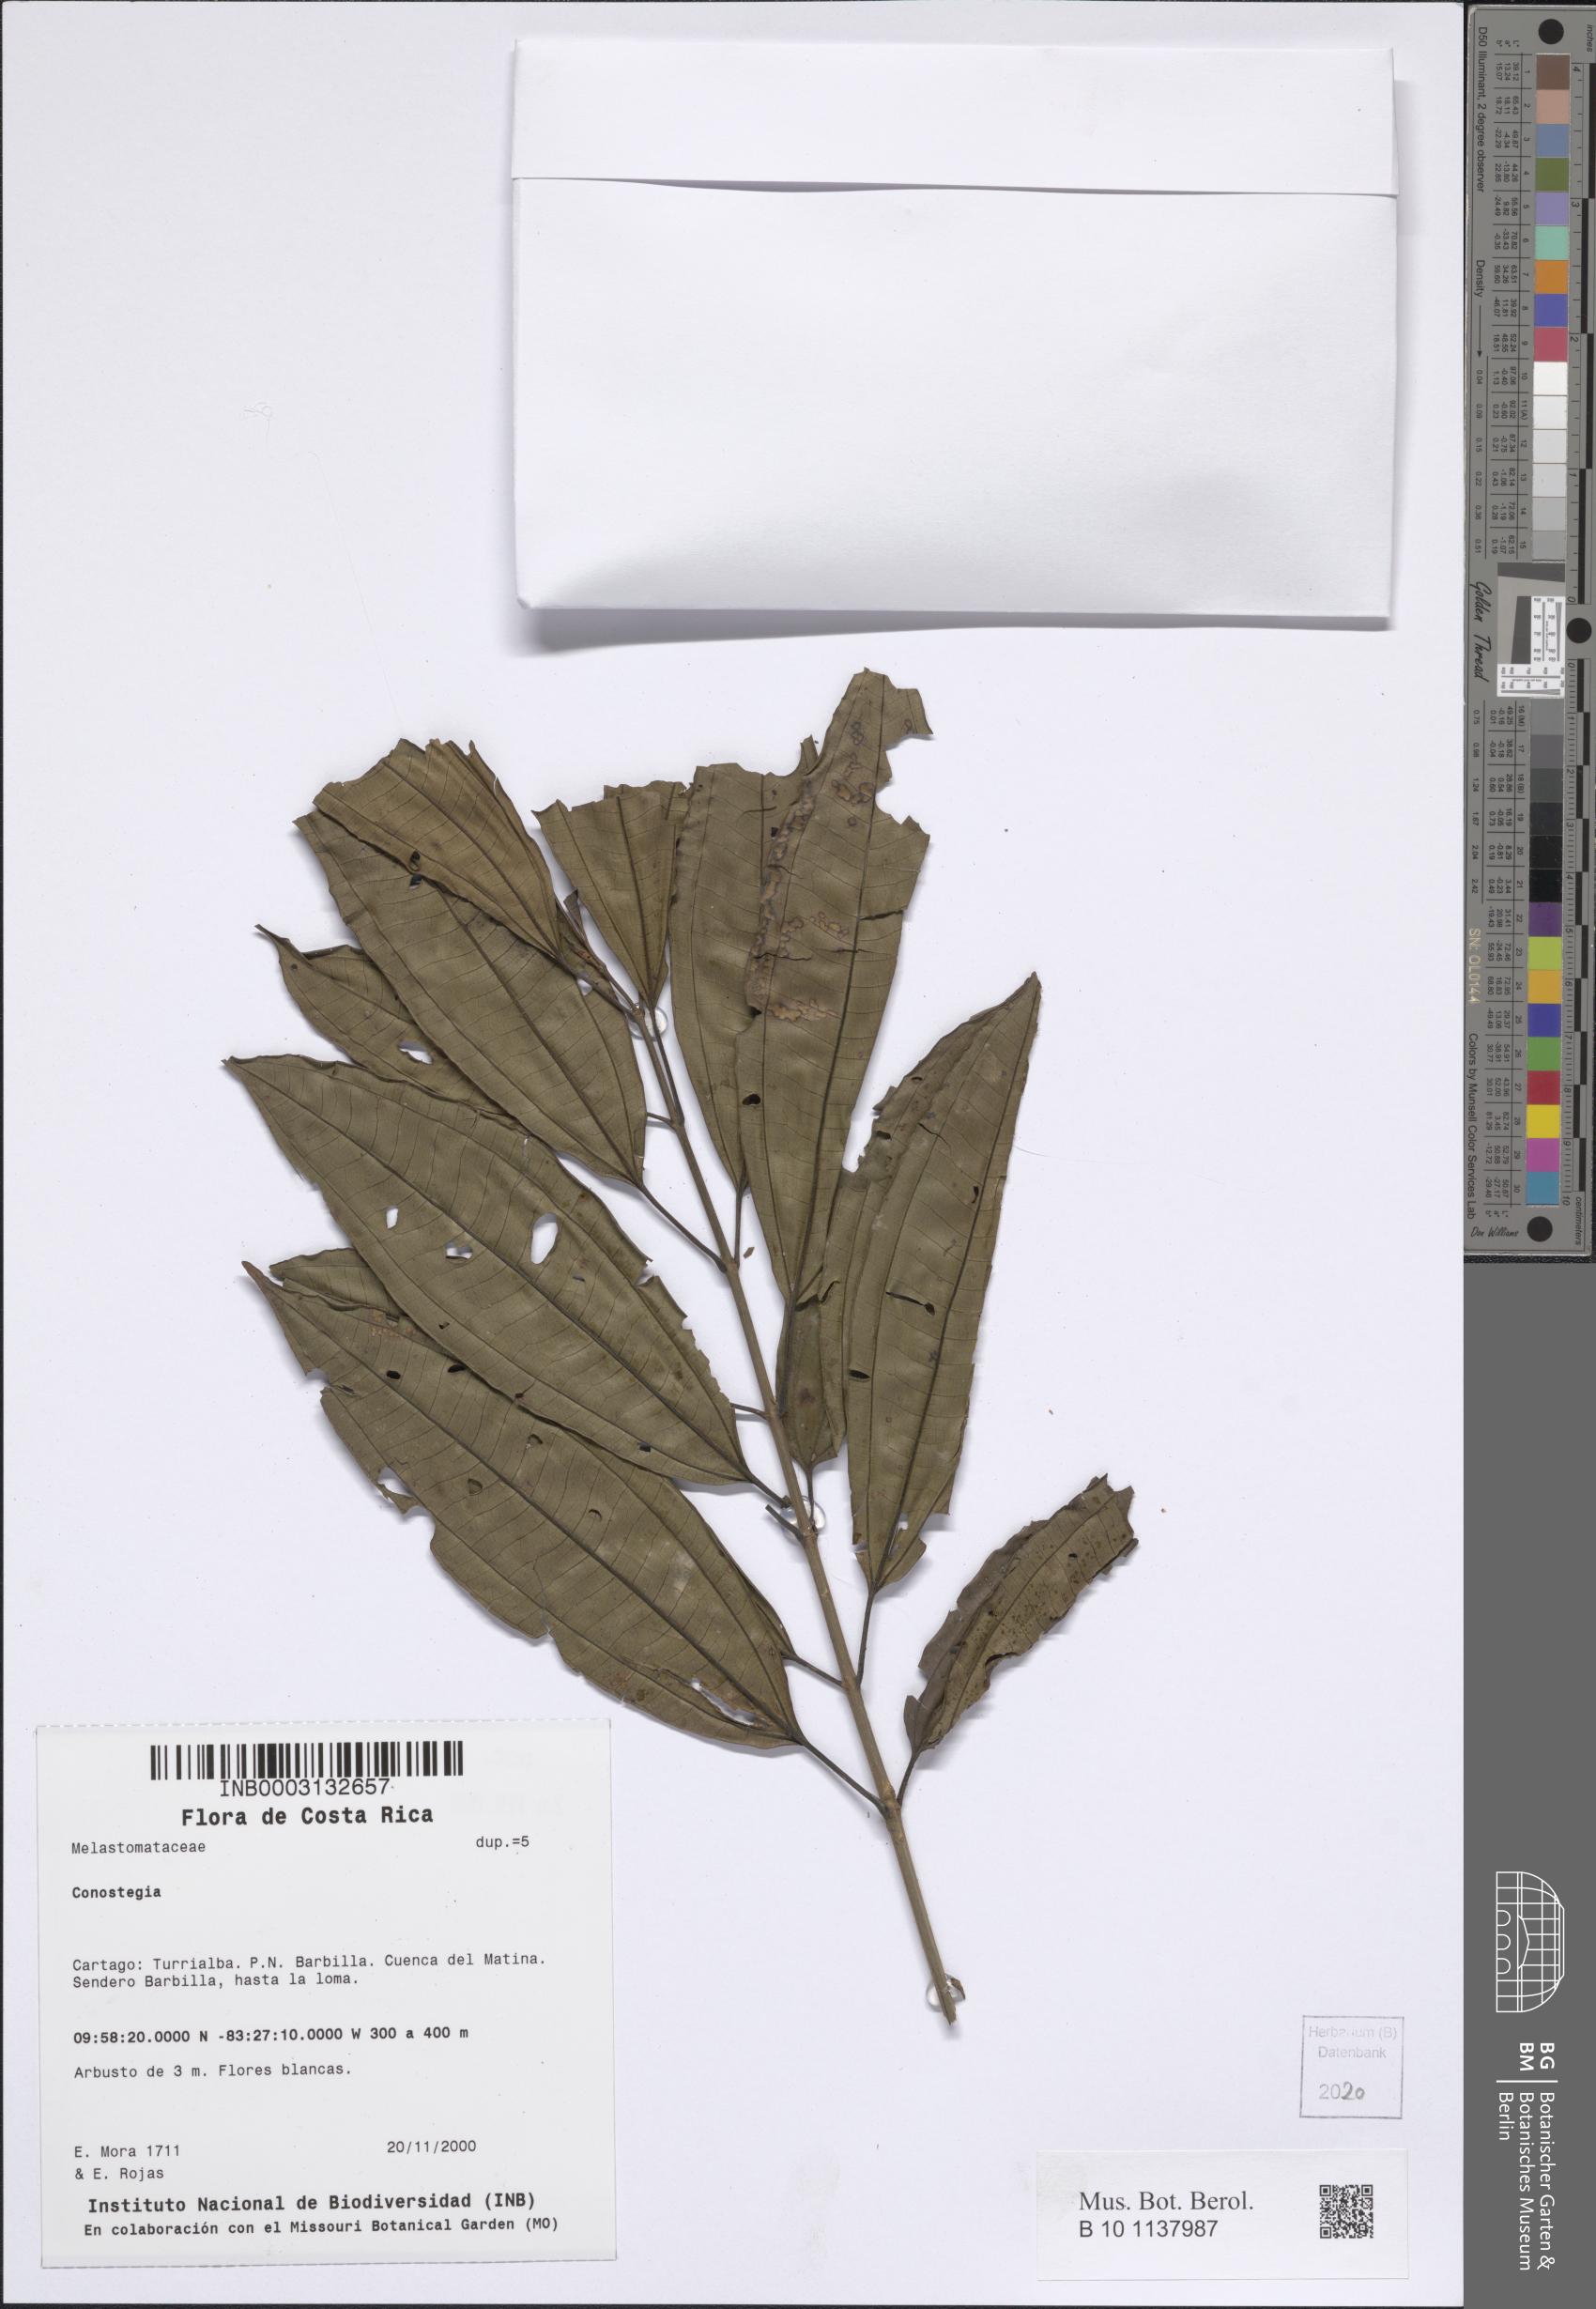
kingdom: Plantae
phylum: Tracheophyta
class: Magnoliopsida
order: Myrtales
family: Melastomataceae
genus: Miconia
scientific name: Miconia
